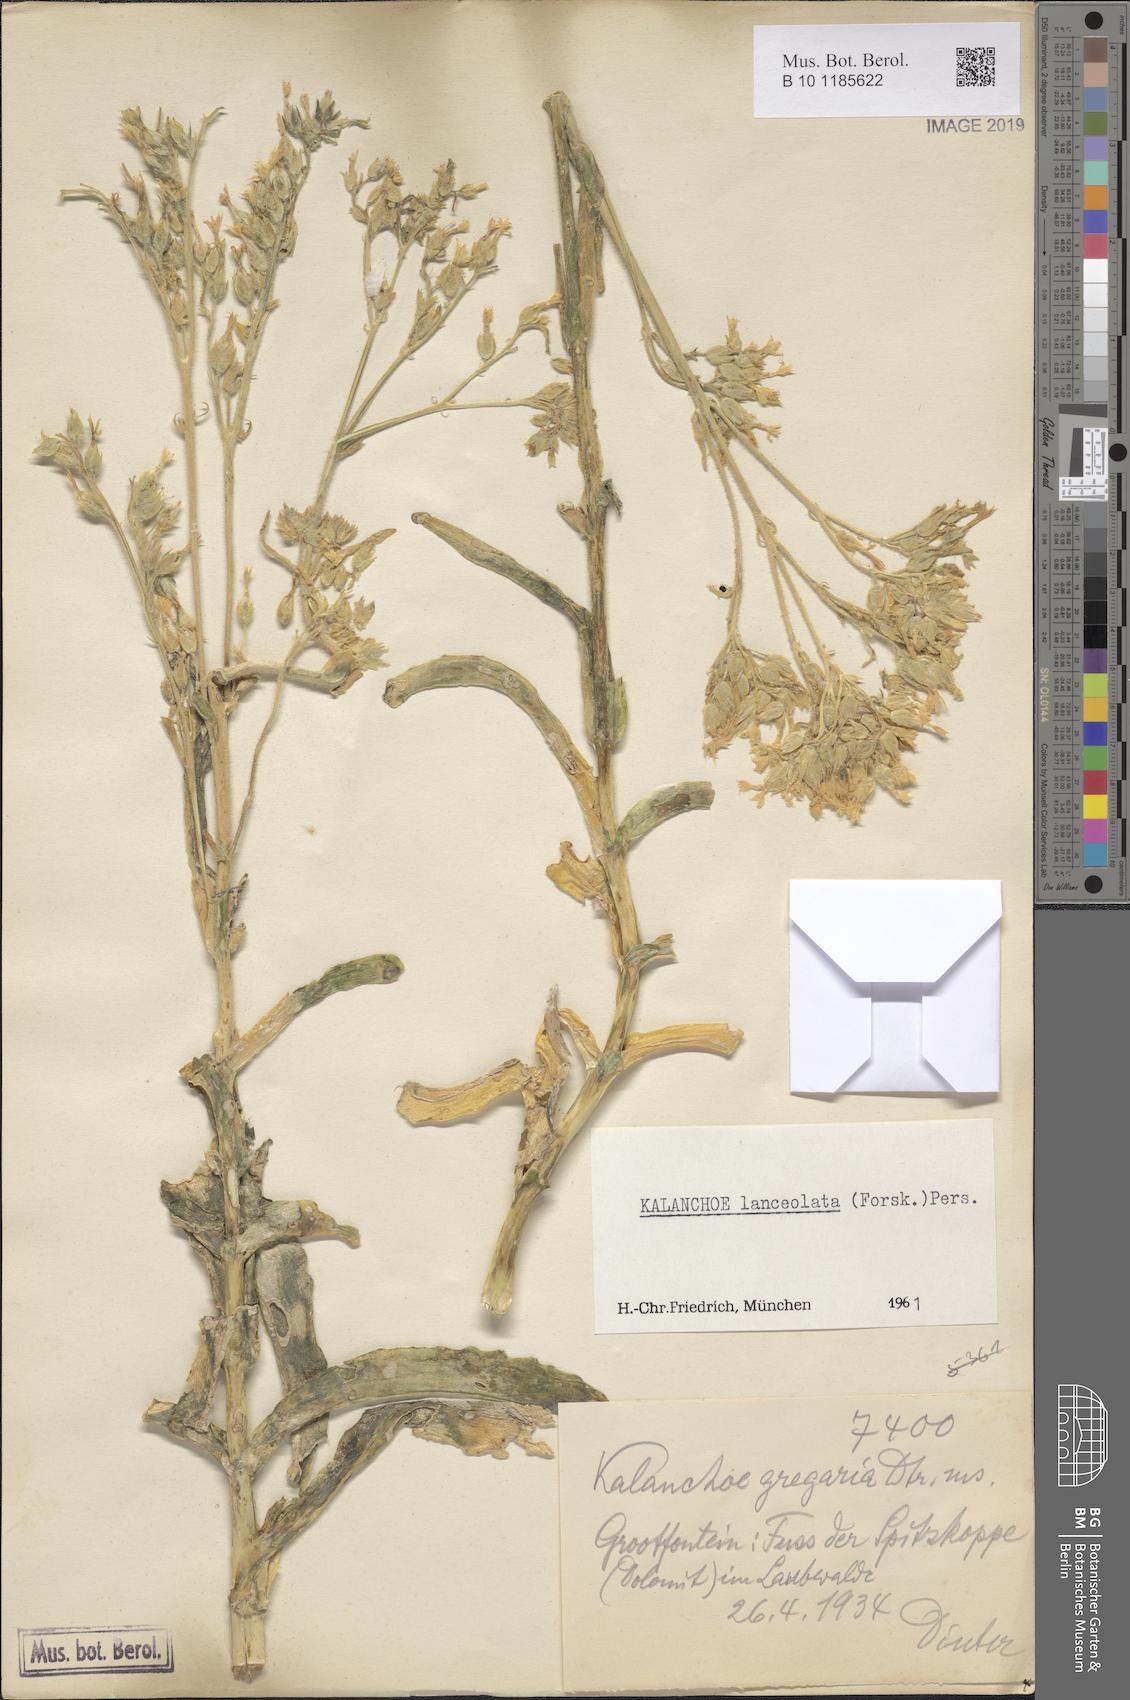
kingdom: Plantae
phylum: Tracheophyta
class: Magnoliopsida
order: Saxifragales
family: Crassulaceae
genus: Kalanchoe
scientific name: Kalanchoe lanceolata
